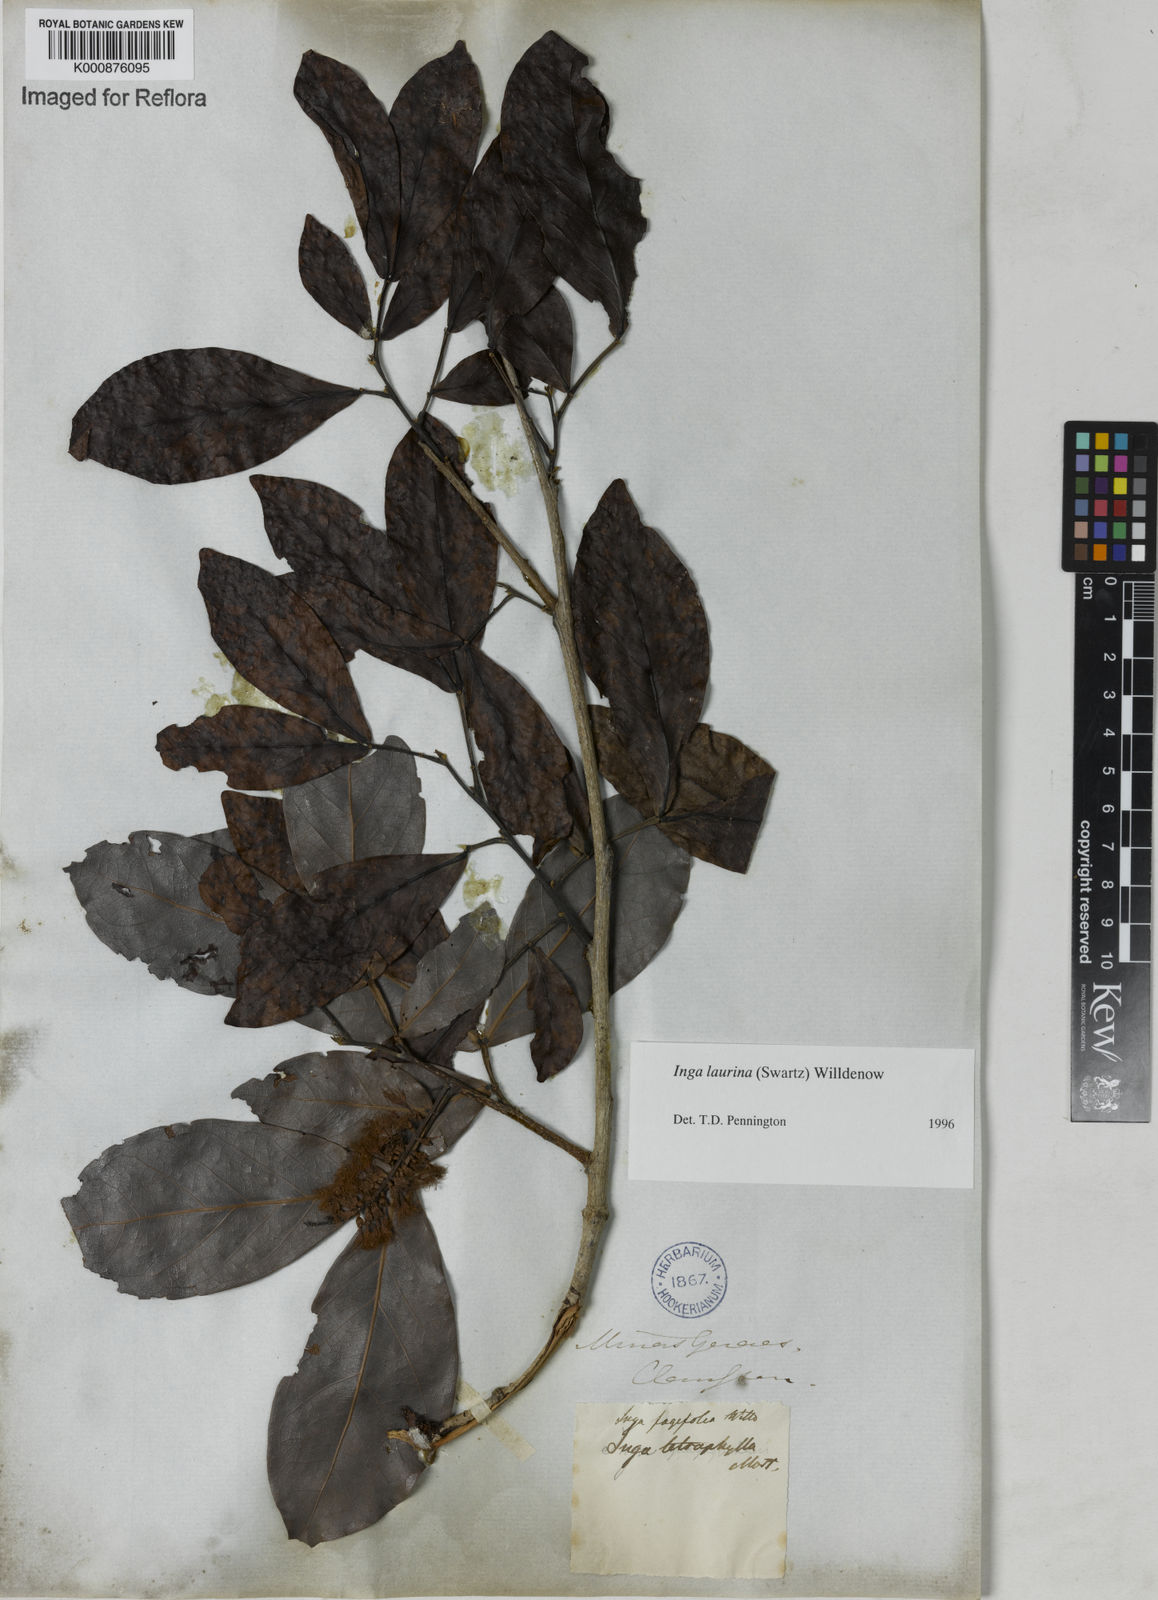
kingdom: Plantae
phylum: Tracheophyta
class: Magnoliopsida
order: Fabales
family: Fabaceae
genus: Inga
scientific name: Inga laurina
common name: Red wood
